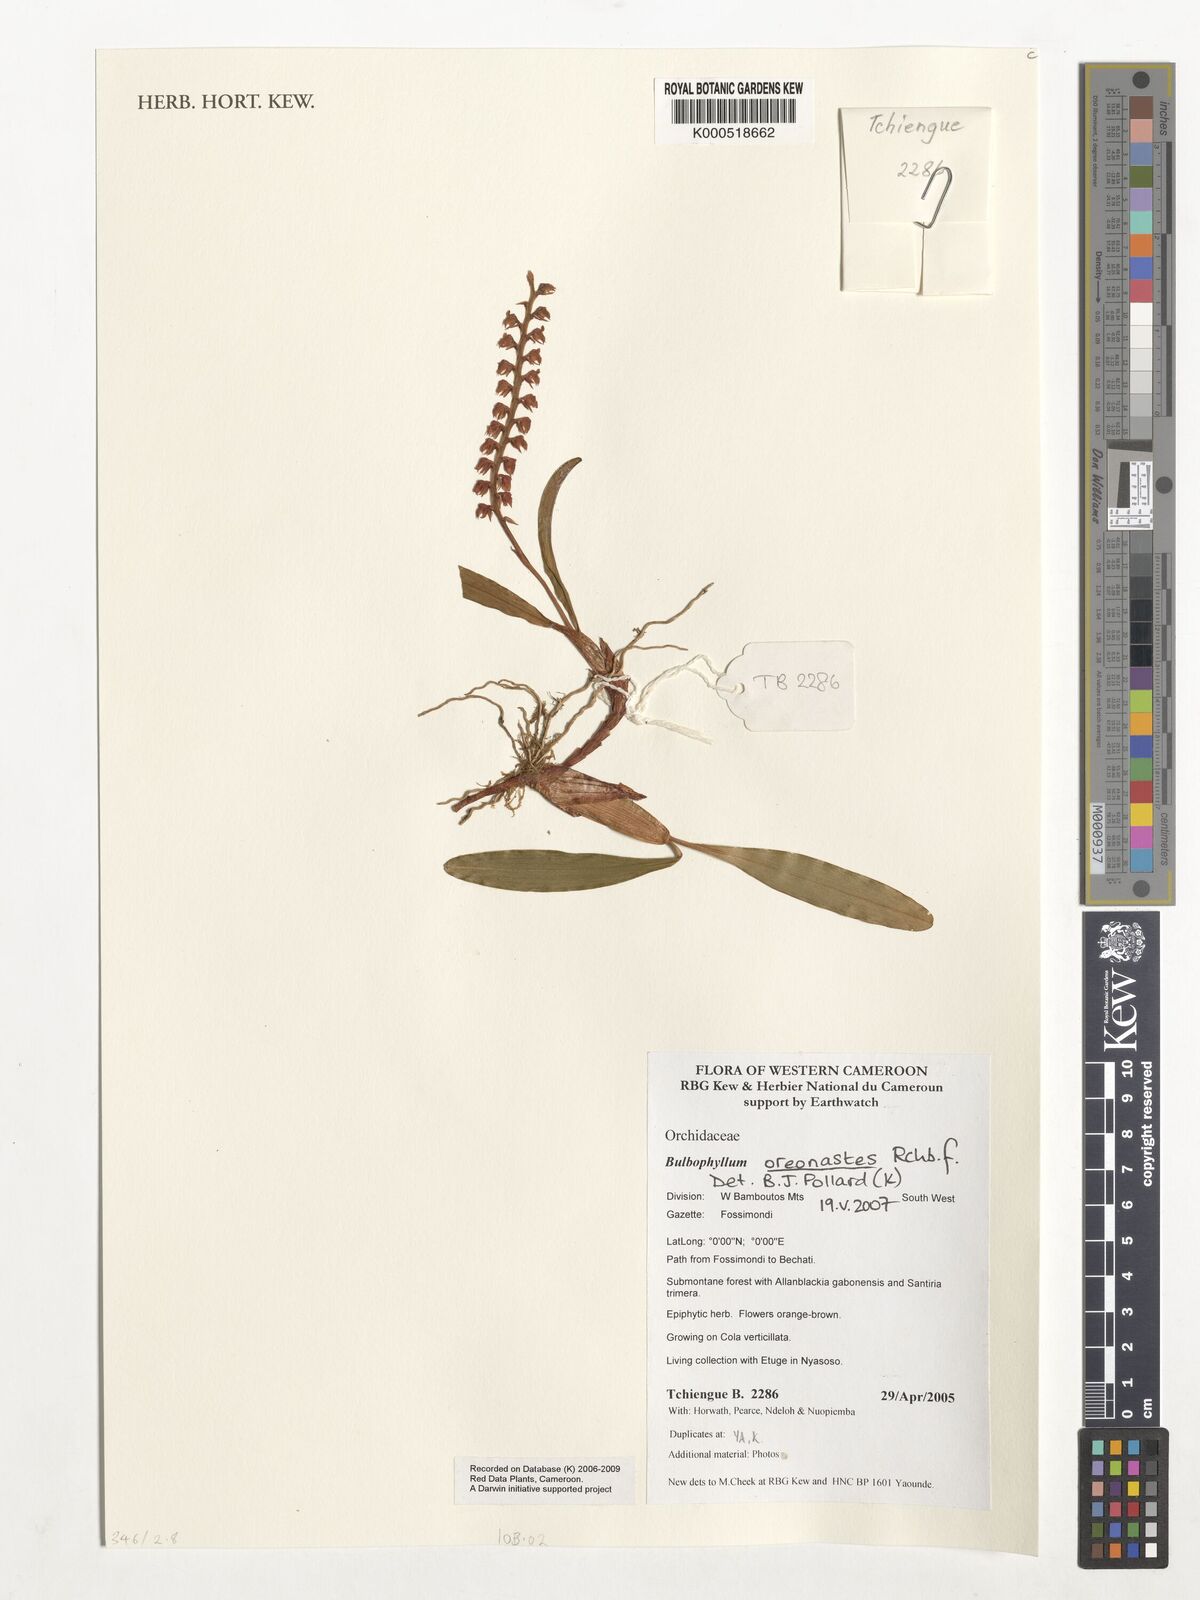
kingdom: Plantae
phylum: Tracheophyta
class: Liliopsida
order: Asparagales
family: Orchidaceae
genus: Bulbophyllum
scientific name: Bulbophyllum oreonastes
